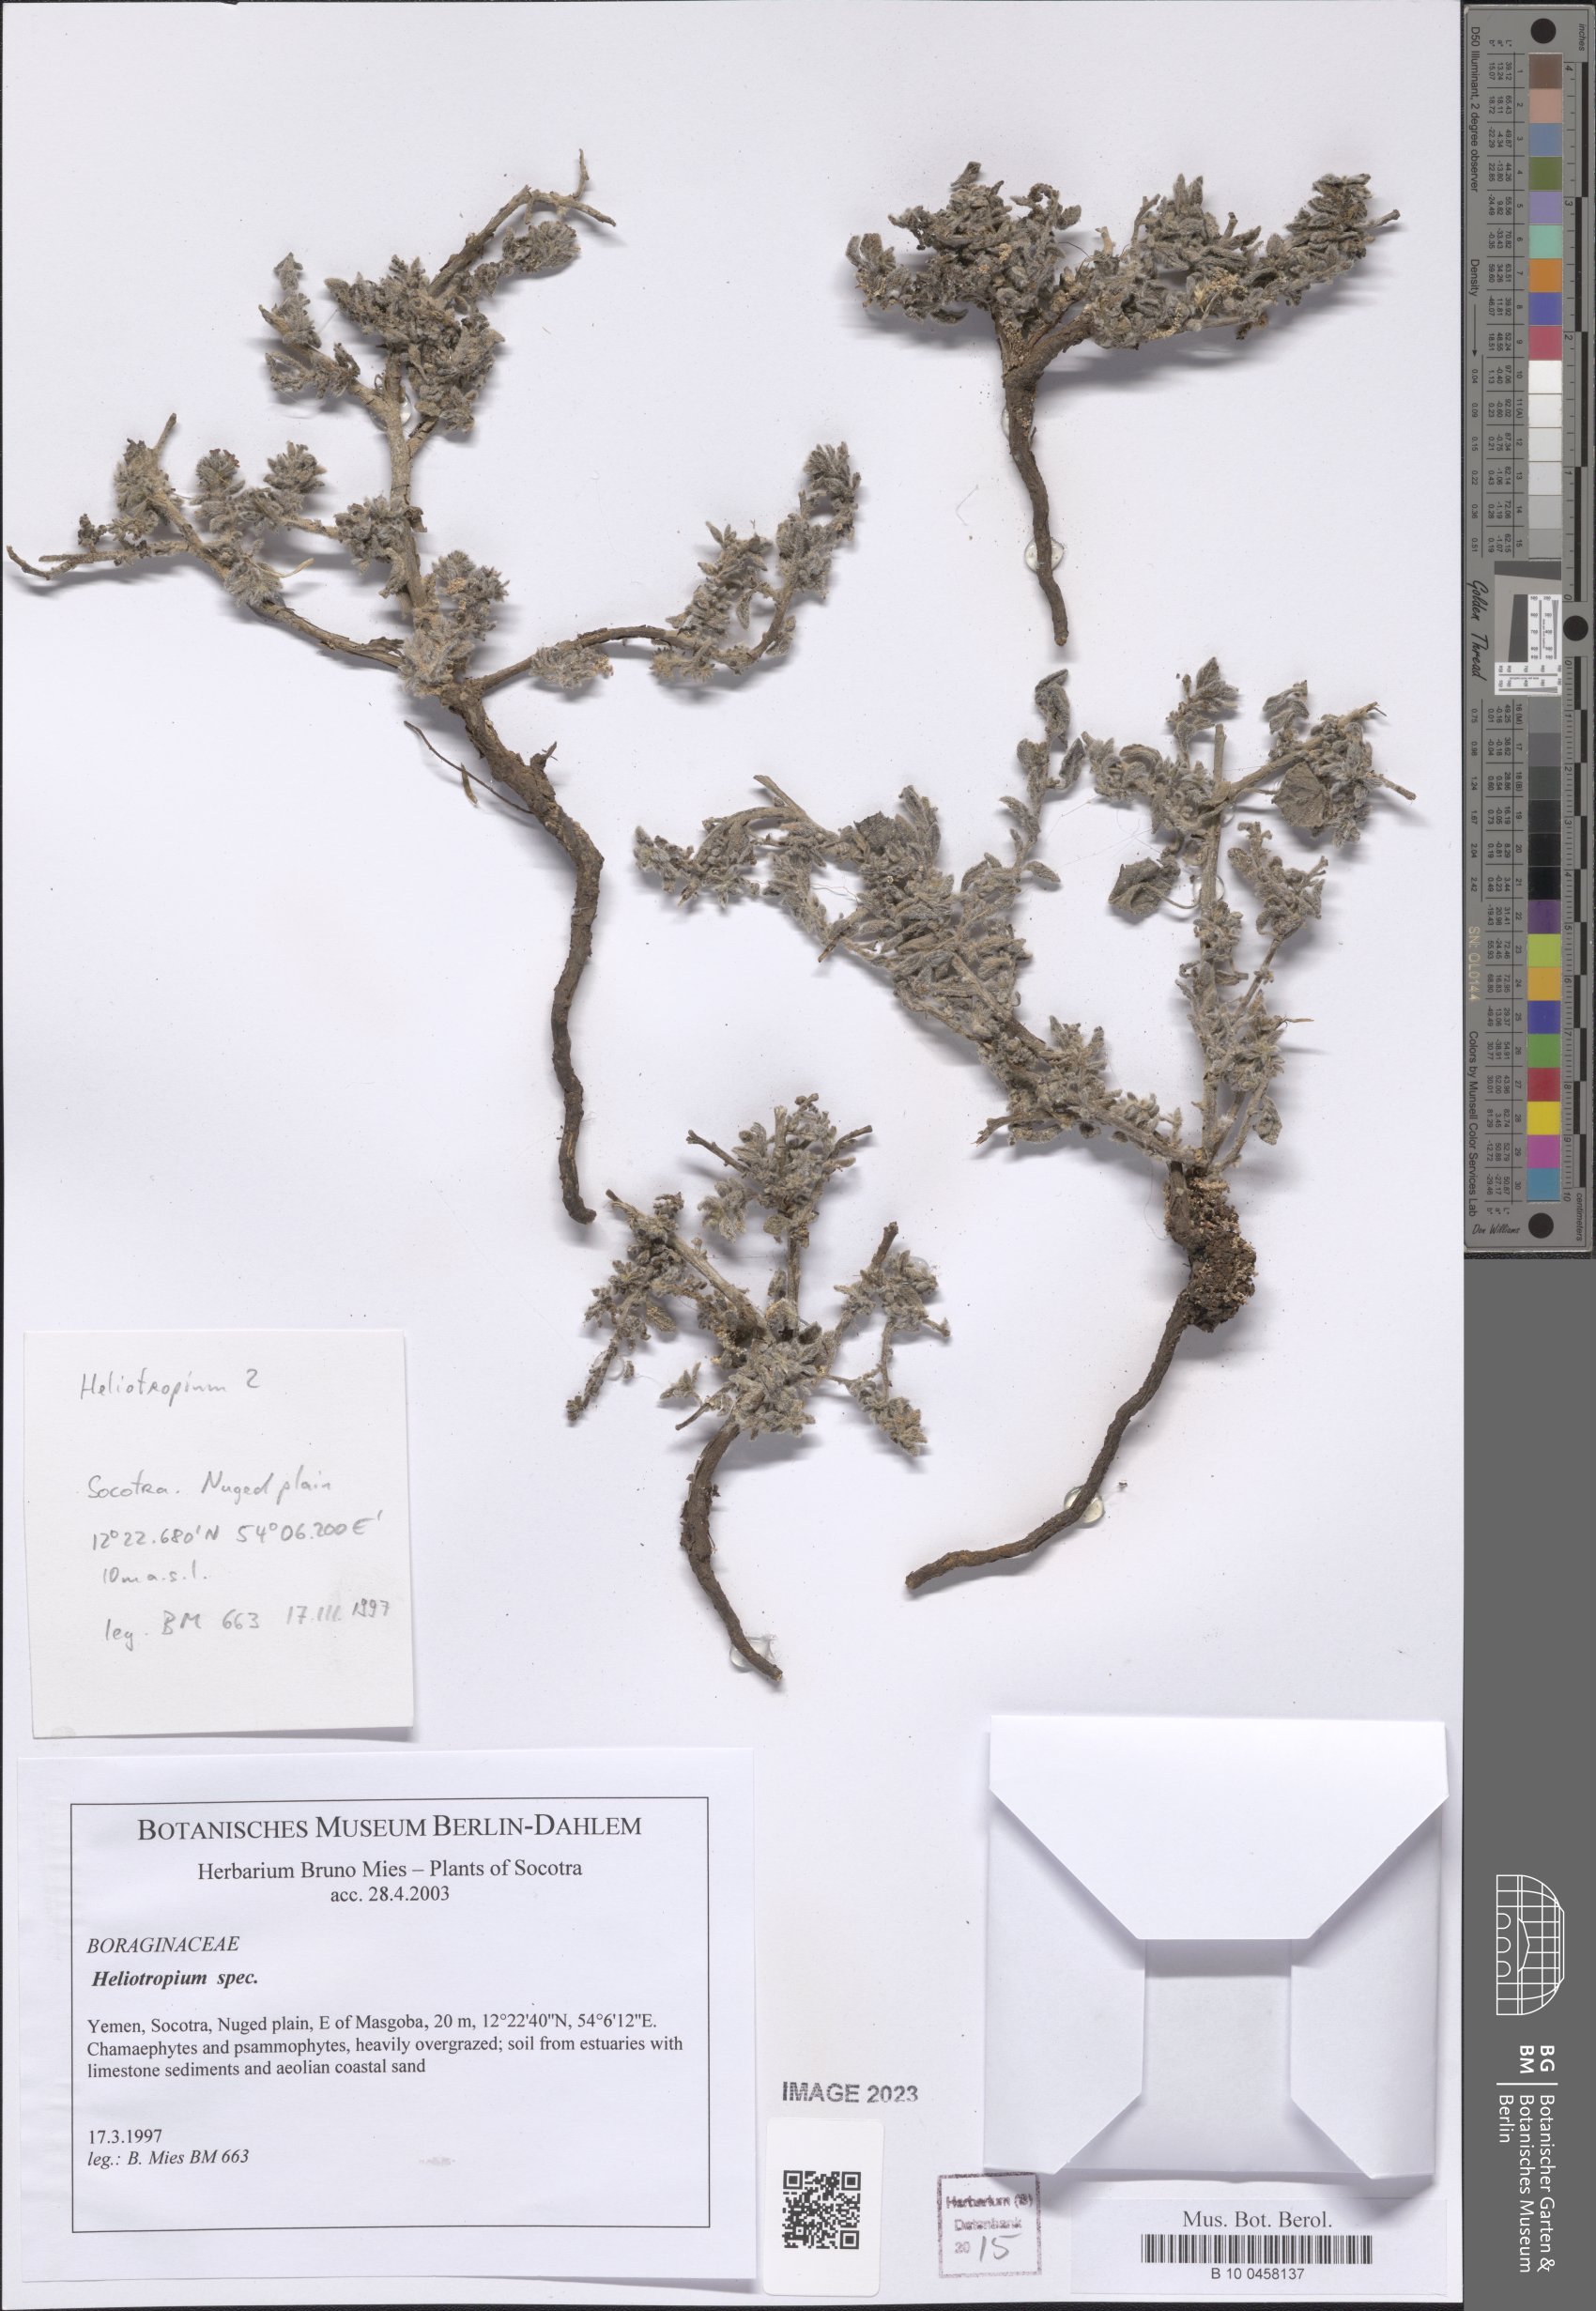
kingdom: Plantae
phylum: Tracheophyta
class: Magnoliopsida
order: Boraginales
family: Heliotropiaceae
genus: Heliotropium
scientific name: Heliotropium
